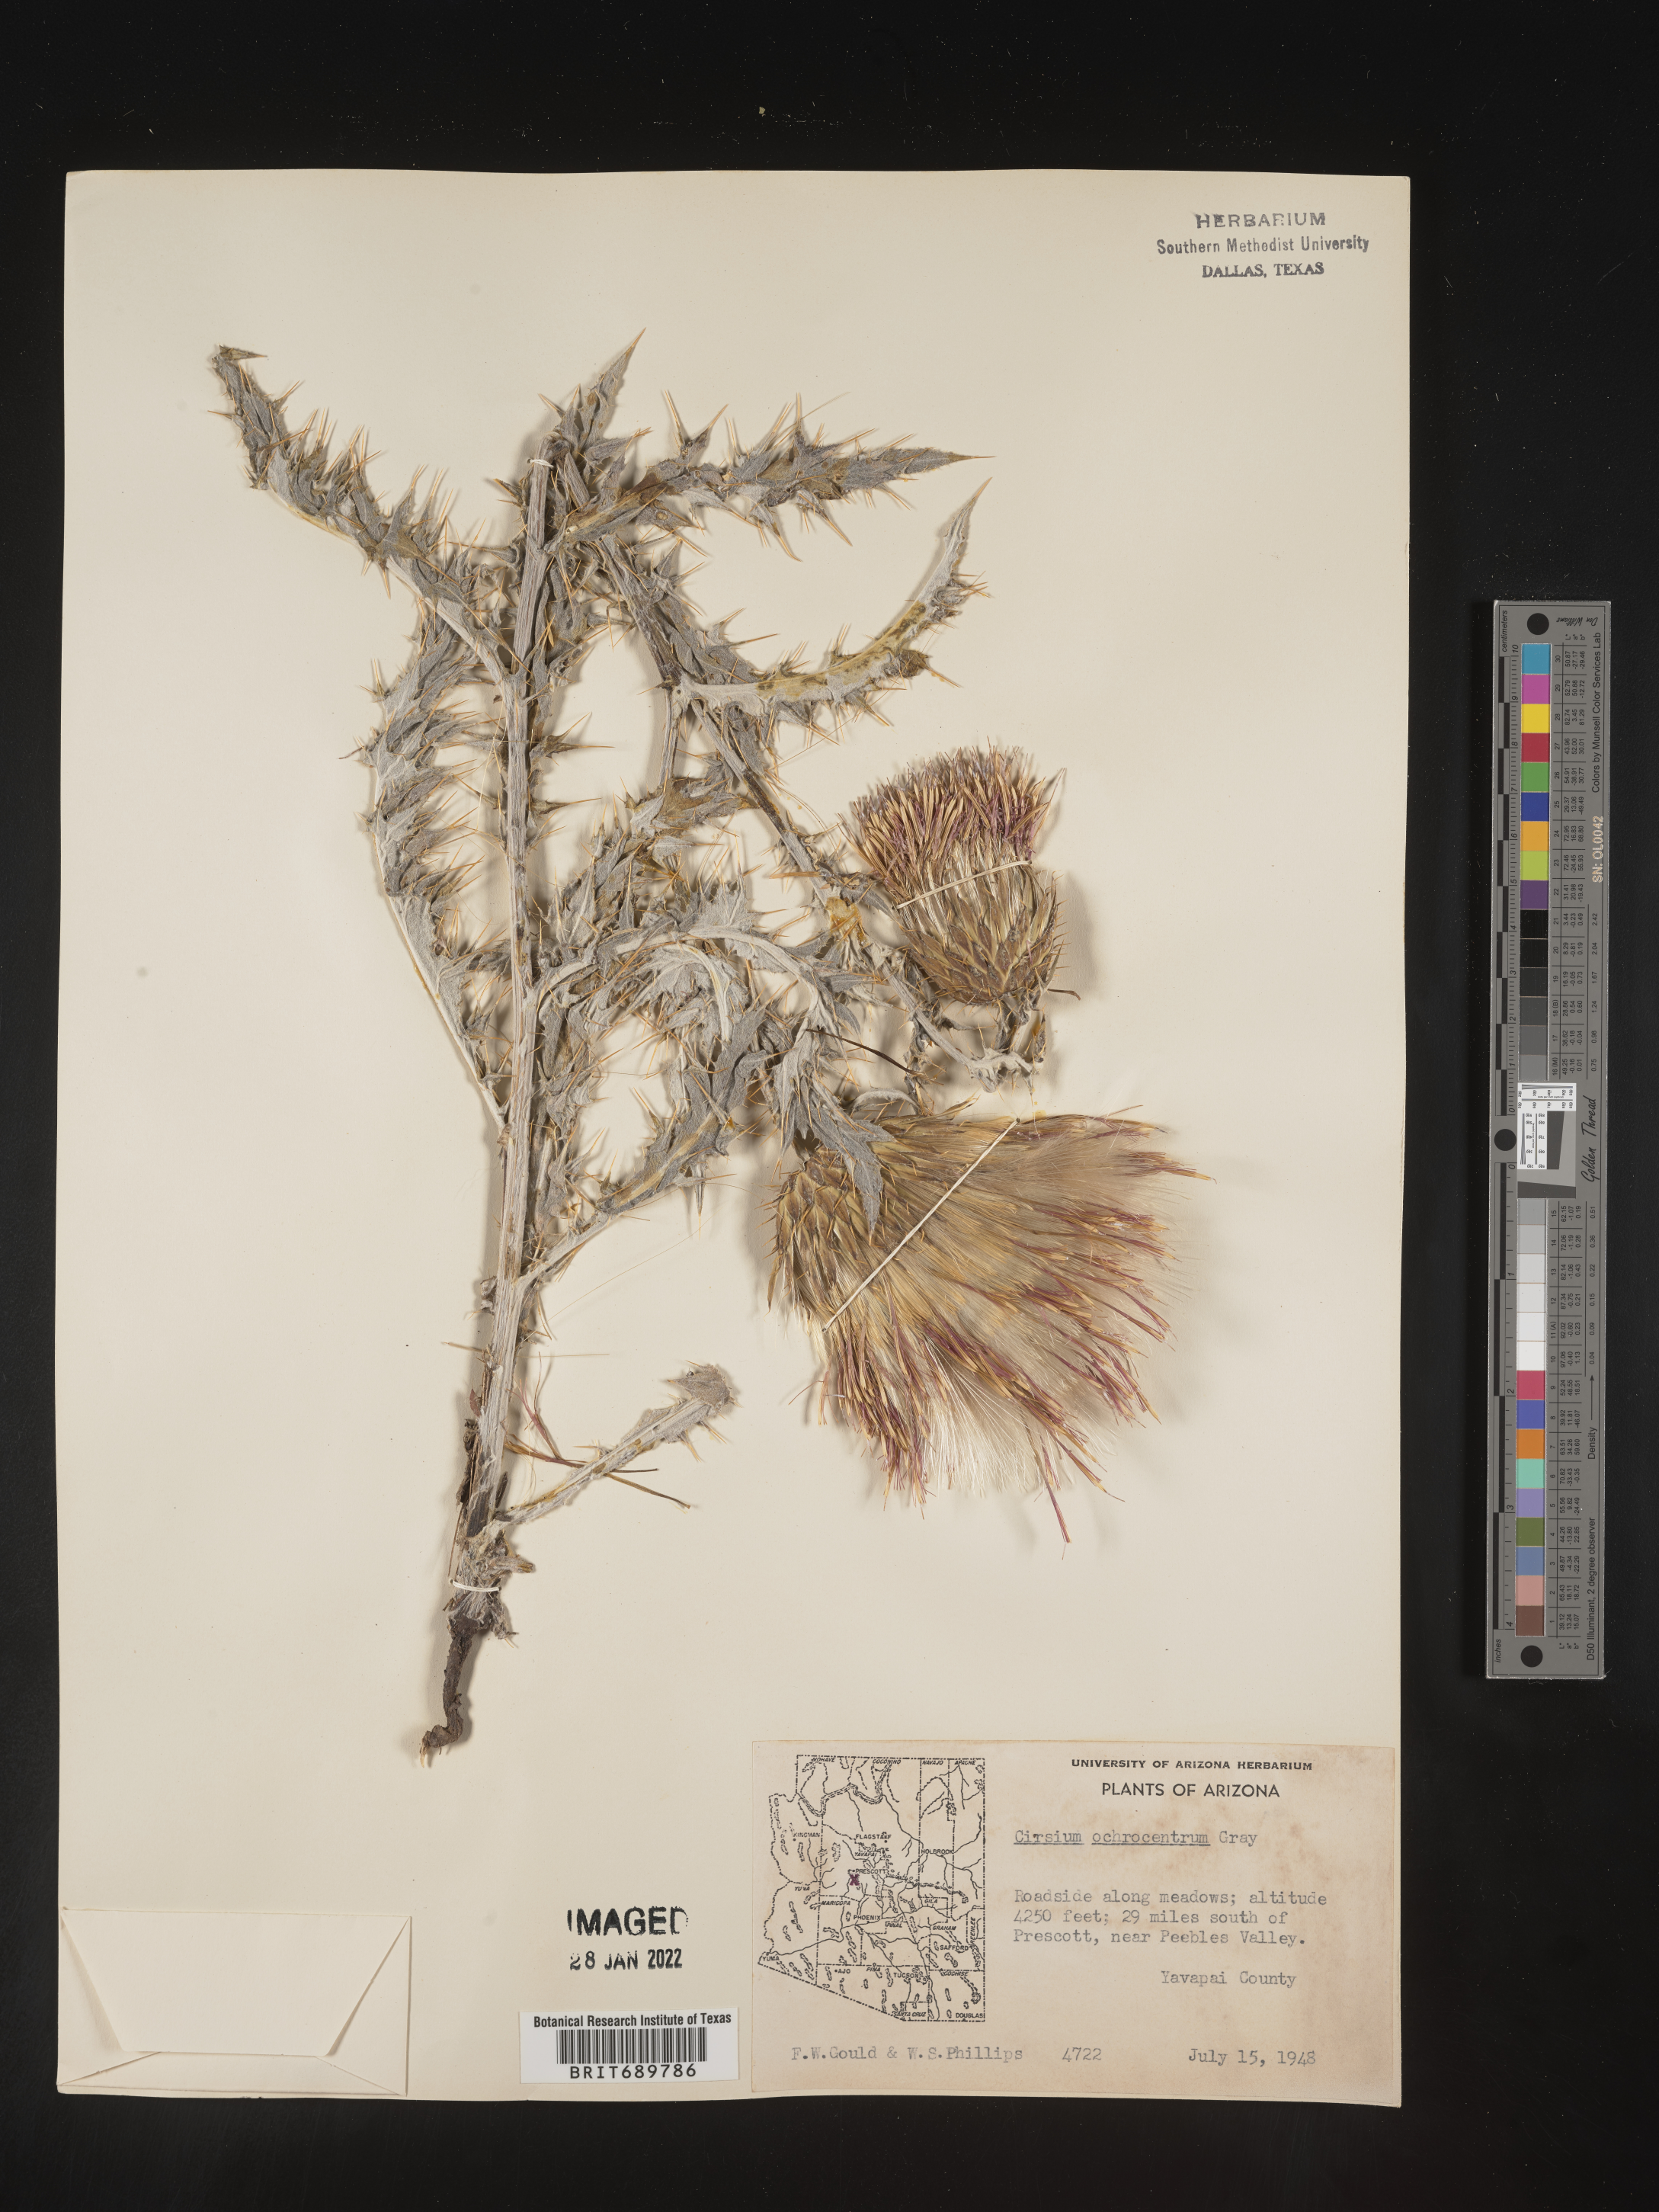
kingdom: Plantae
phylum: Tracheophyta
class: Magnoliopsida
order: Asterales
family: Asteraceae
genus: Cirsium
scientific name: Cirsium ochrocentrum
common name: Yellow-spine thistle
